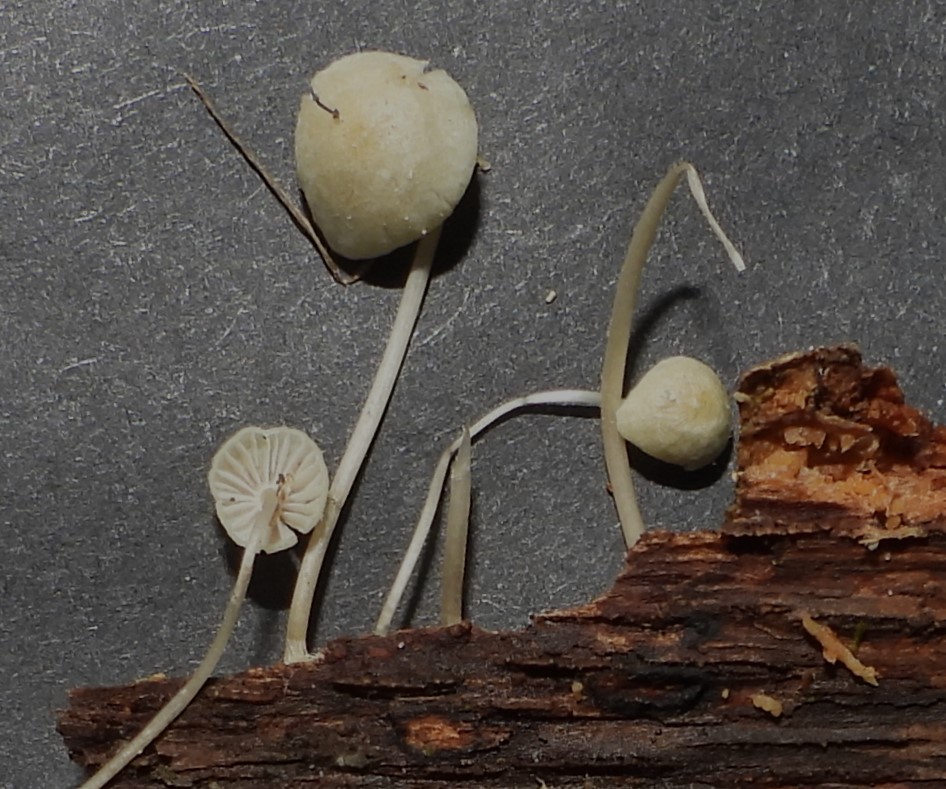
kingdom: Fungi
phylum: Basidiomycota
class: Agaricomycetes
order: Agaricales
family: Mycenaceae
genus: Mycena
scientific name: Mycena
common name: huesvamp
